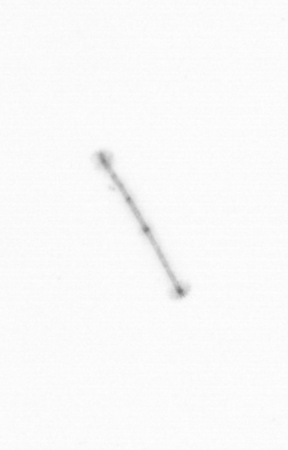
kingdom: Chromista
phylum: Ochrophyta
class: Bacillariophyceae
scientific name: Bacillariophyceae
